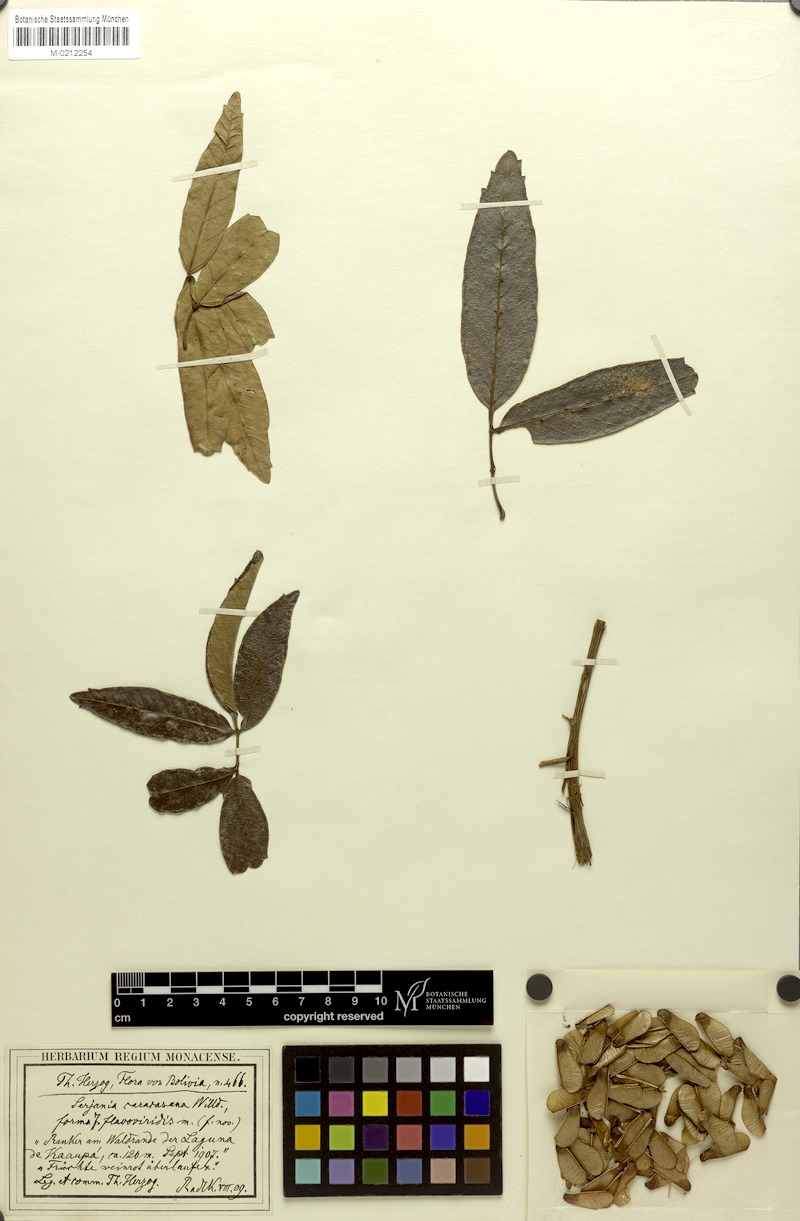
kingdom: Plantae
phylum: Tracheophyta
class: Magnoliopsida
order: Sapindales
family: Sapindaceae
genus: Serjania
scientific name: Serjania caracasana
